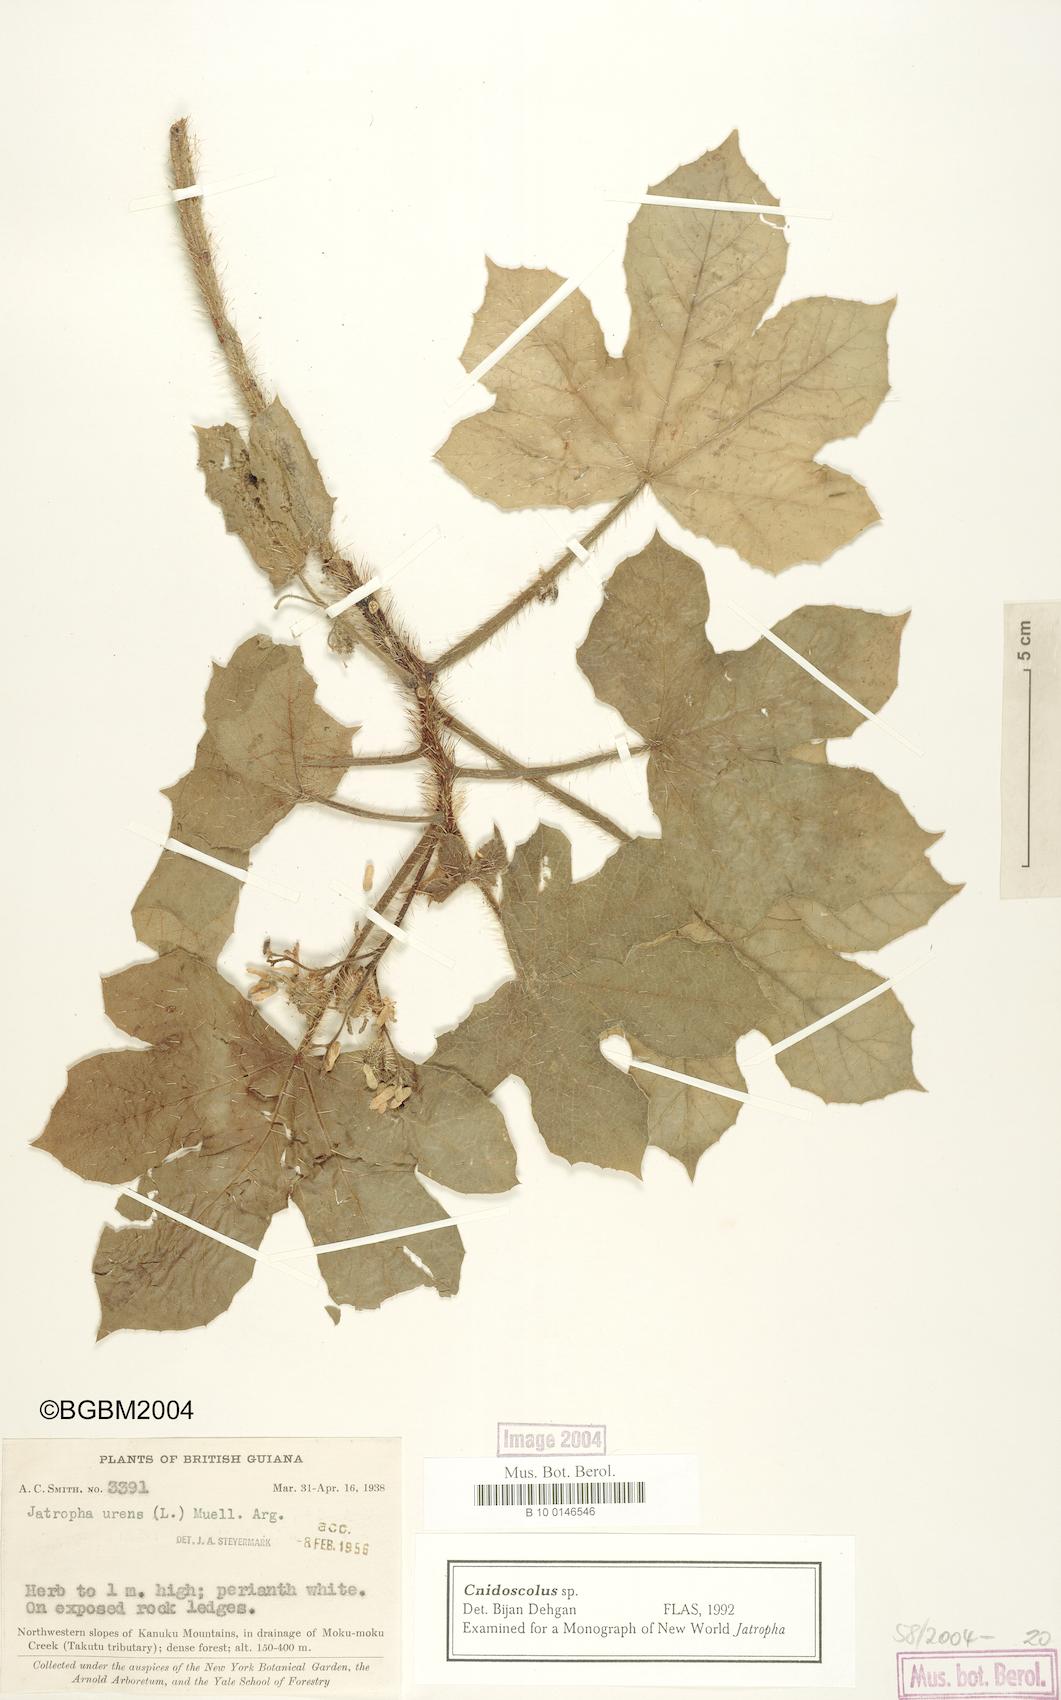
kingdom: Plantae
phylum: Tracheophyta
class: Magnoliopsida
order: Malpighiales
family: Euphorbiaceae
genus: Cnidoscolus
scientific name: Cnidoscolus
